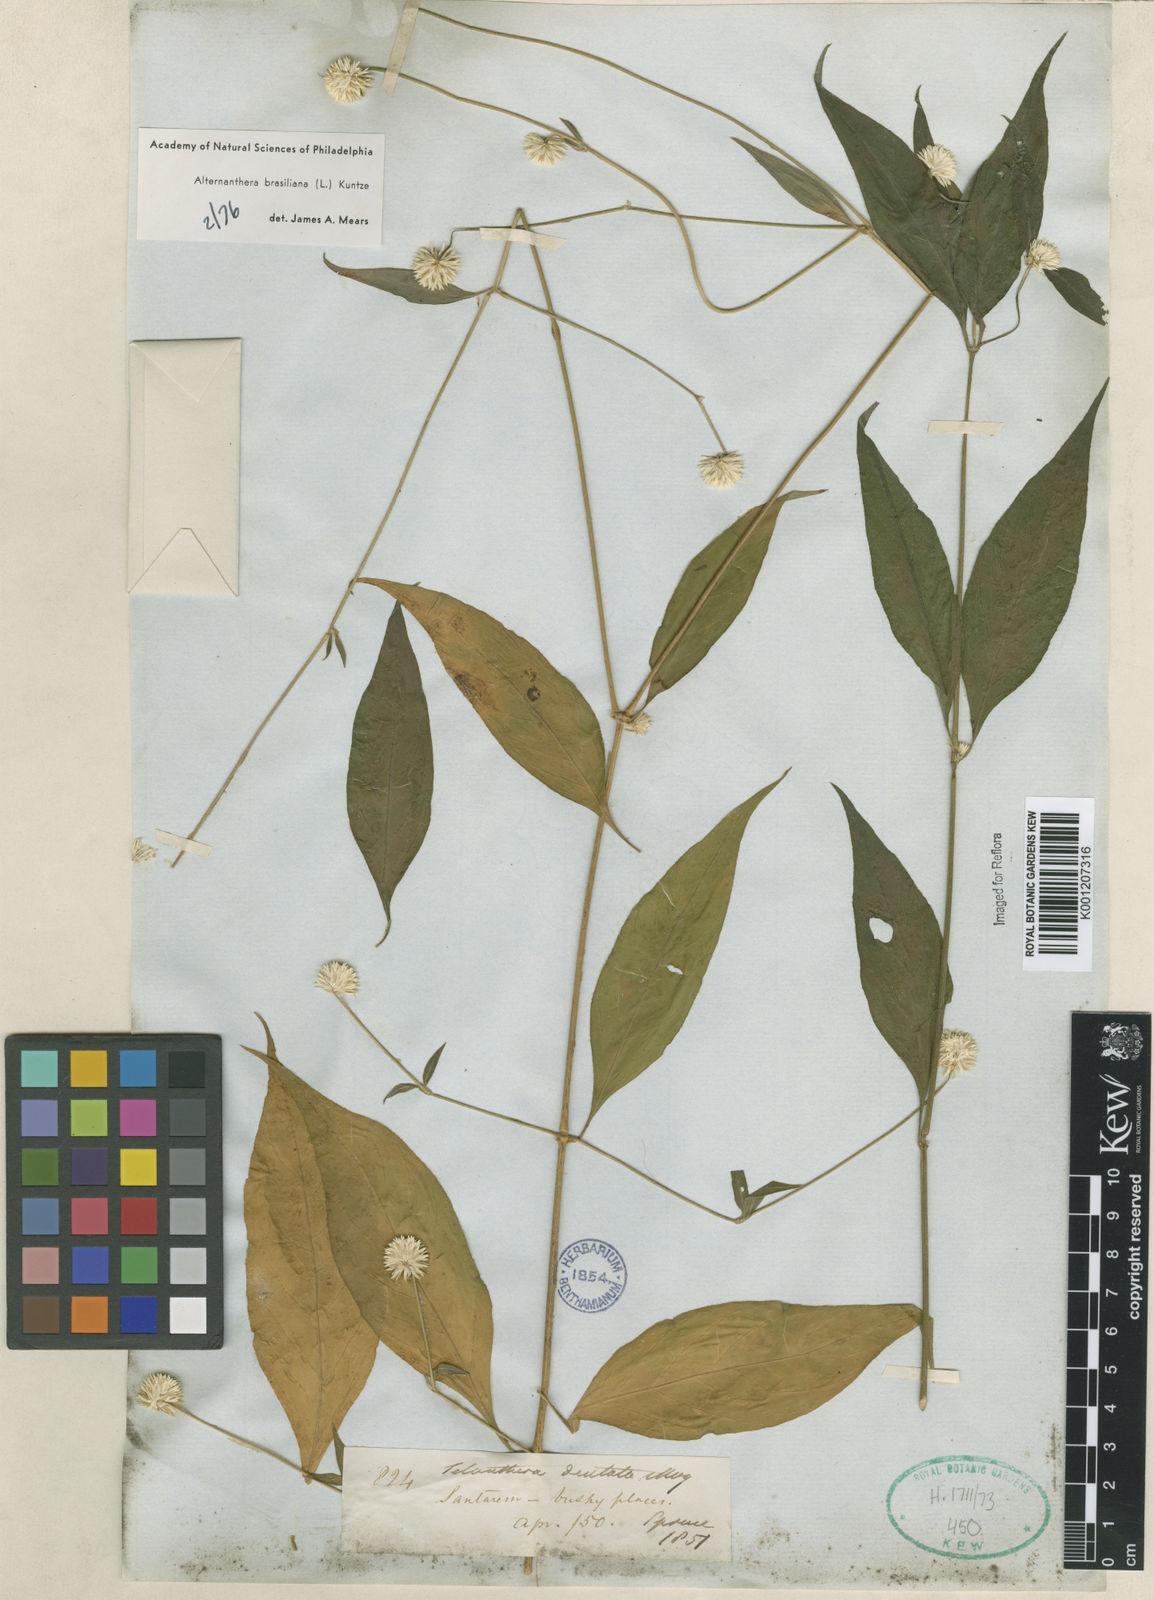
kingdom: Plantae
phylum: Tracheophyta
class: Magnoliopsida
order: Caryophyllales
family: Amaranthaceae
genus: Alternanthera
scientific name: Alternanthera brasiliana
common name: Brazilian joyweed
